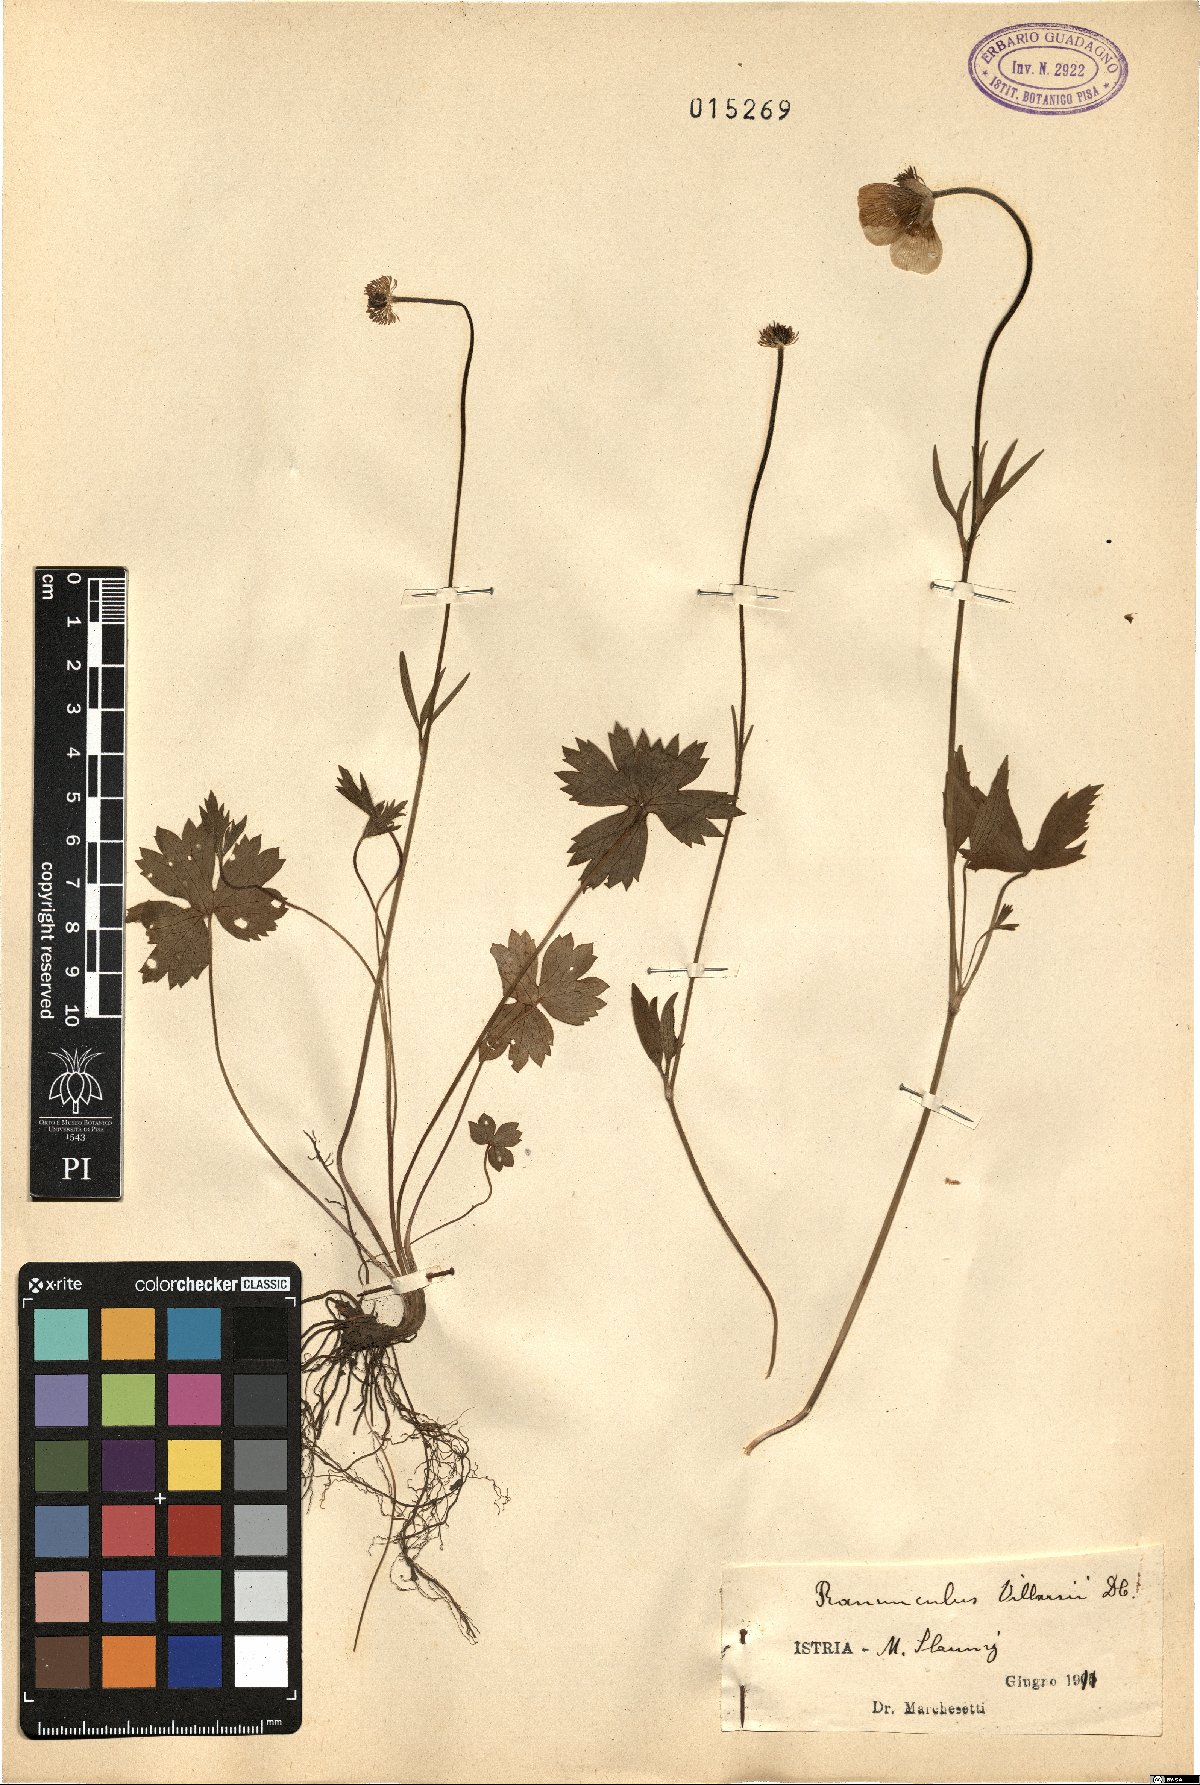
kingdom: Plantae
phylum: Tracheophyta
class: Magnoliopsida
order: Ranunculales
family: Ranunculaceae
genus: Ranunculus
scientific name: Ranunculus villarsii
